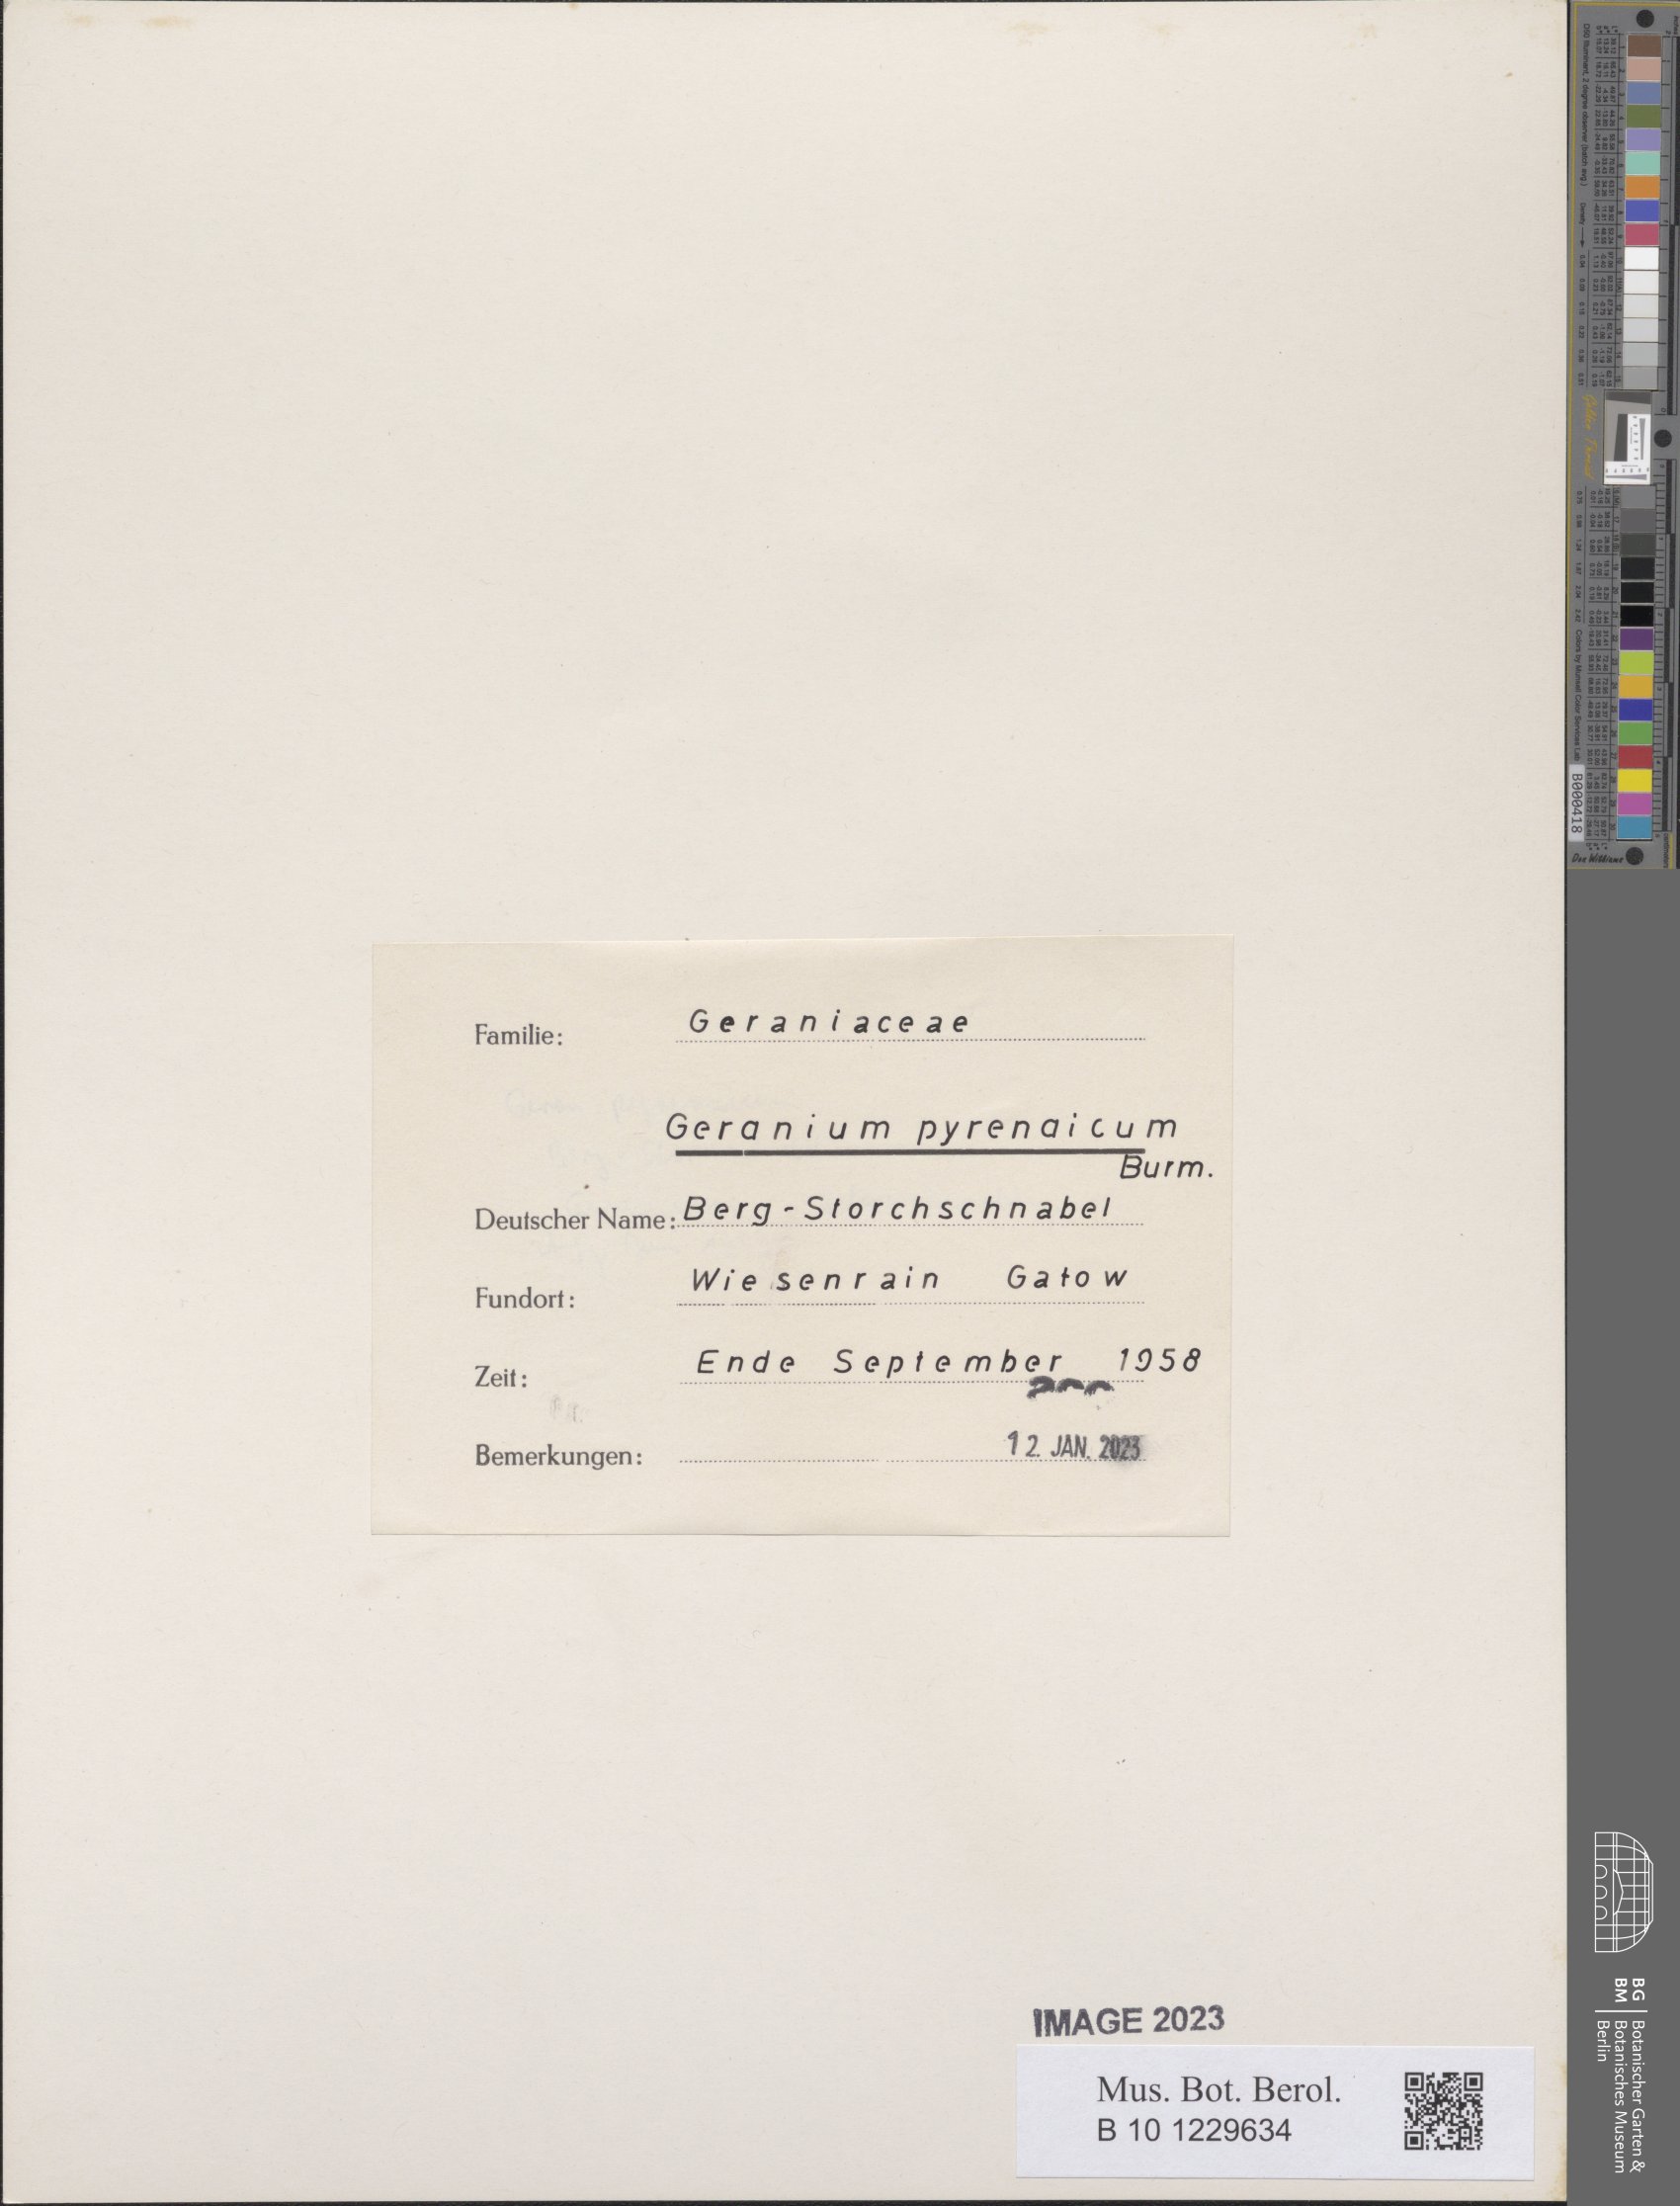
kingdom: Plantae
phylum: Tracheophyta
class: Magnoliopsida
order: Geraniales
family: Geraniaceae
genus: Geranium
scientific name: Geranium pyrenaicum
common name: Hedgerow crane's-bill
